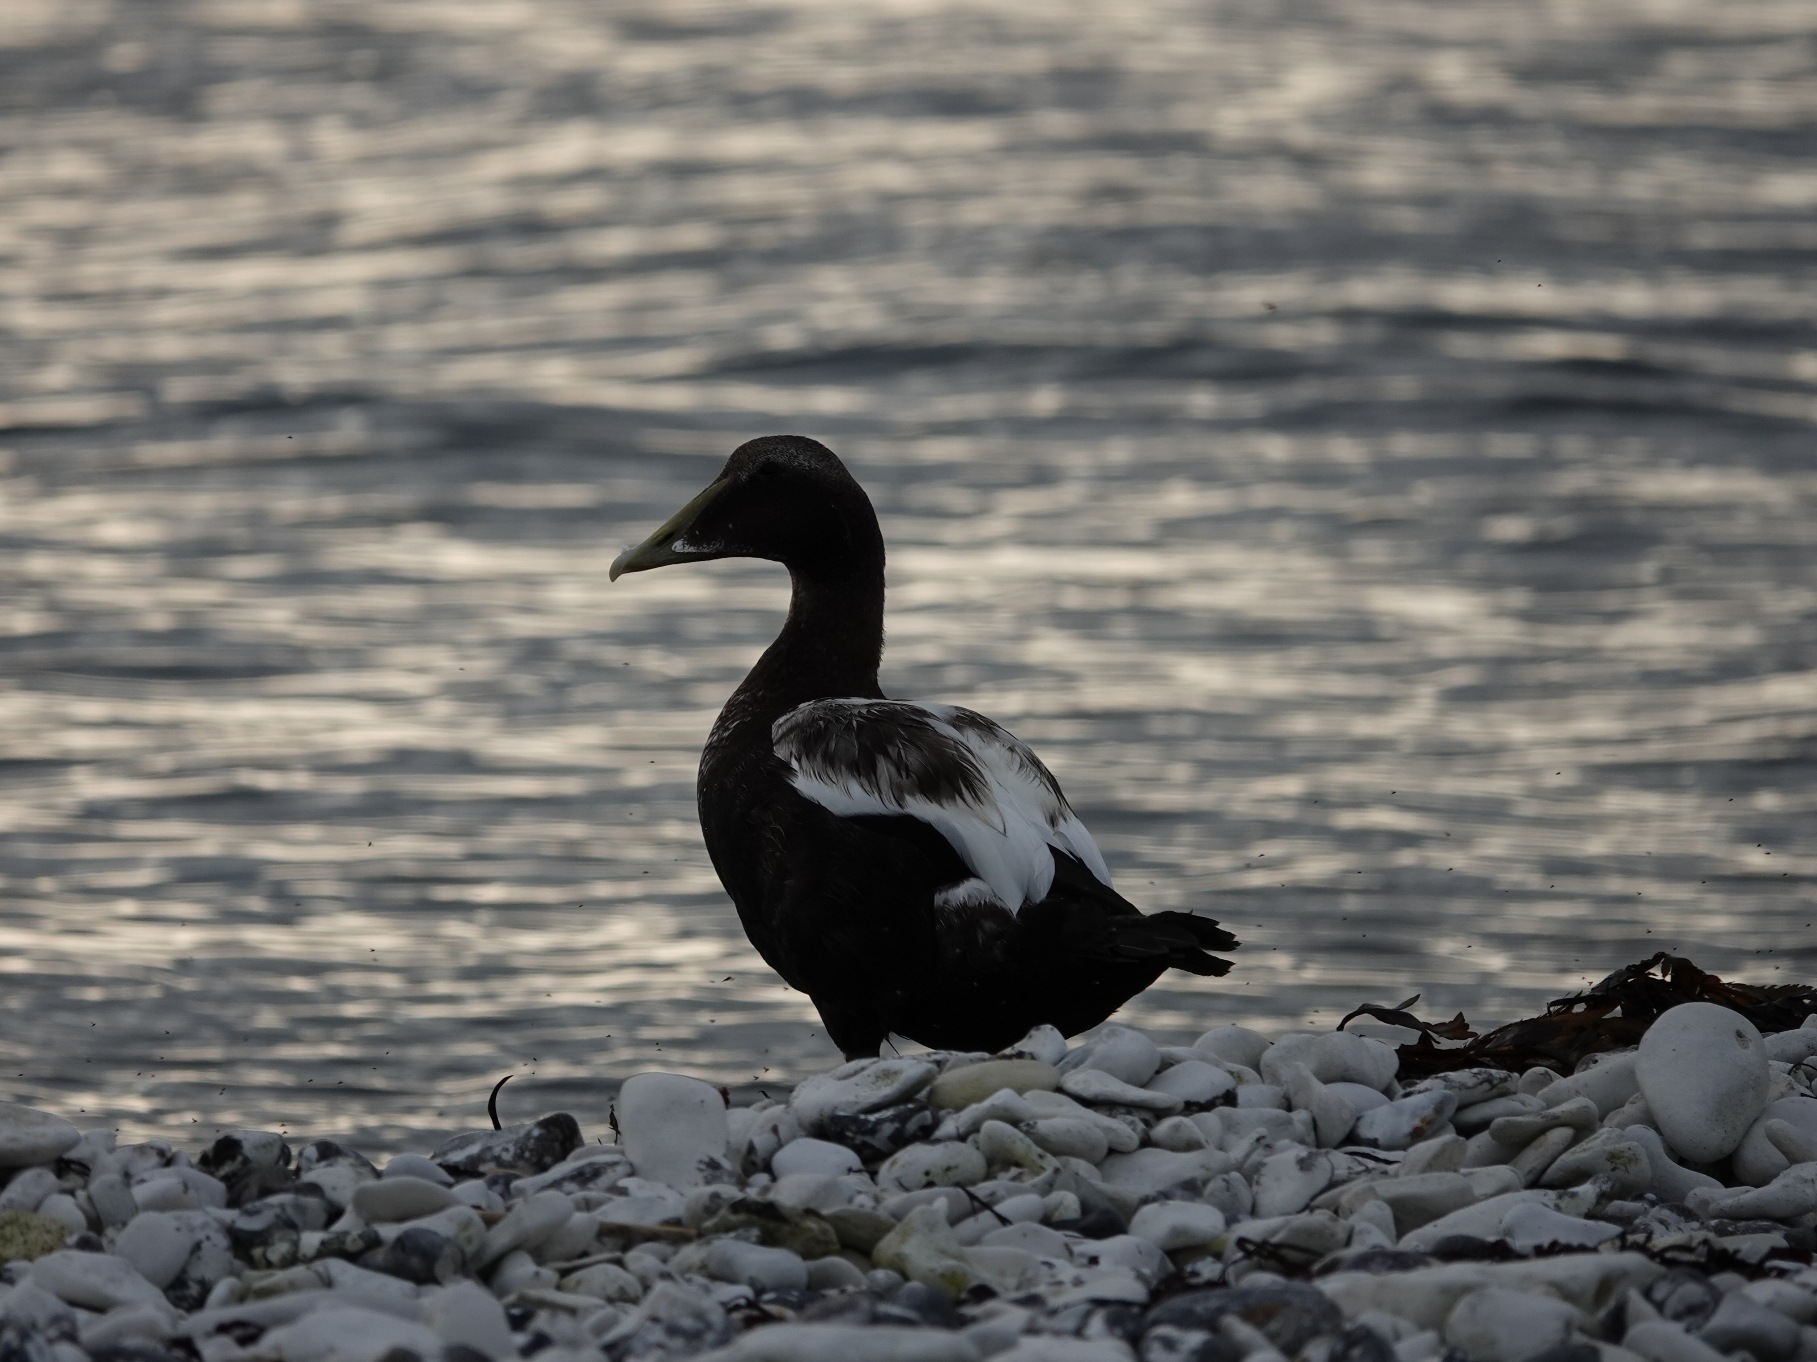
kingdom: Animalia
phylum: Chordata
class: Aves
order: Anseriformes
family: Anatidae
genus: Somateria
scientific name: Somateria mollissima
